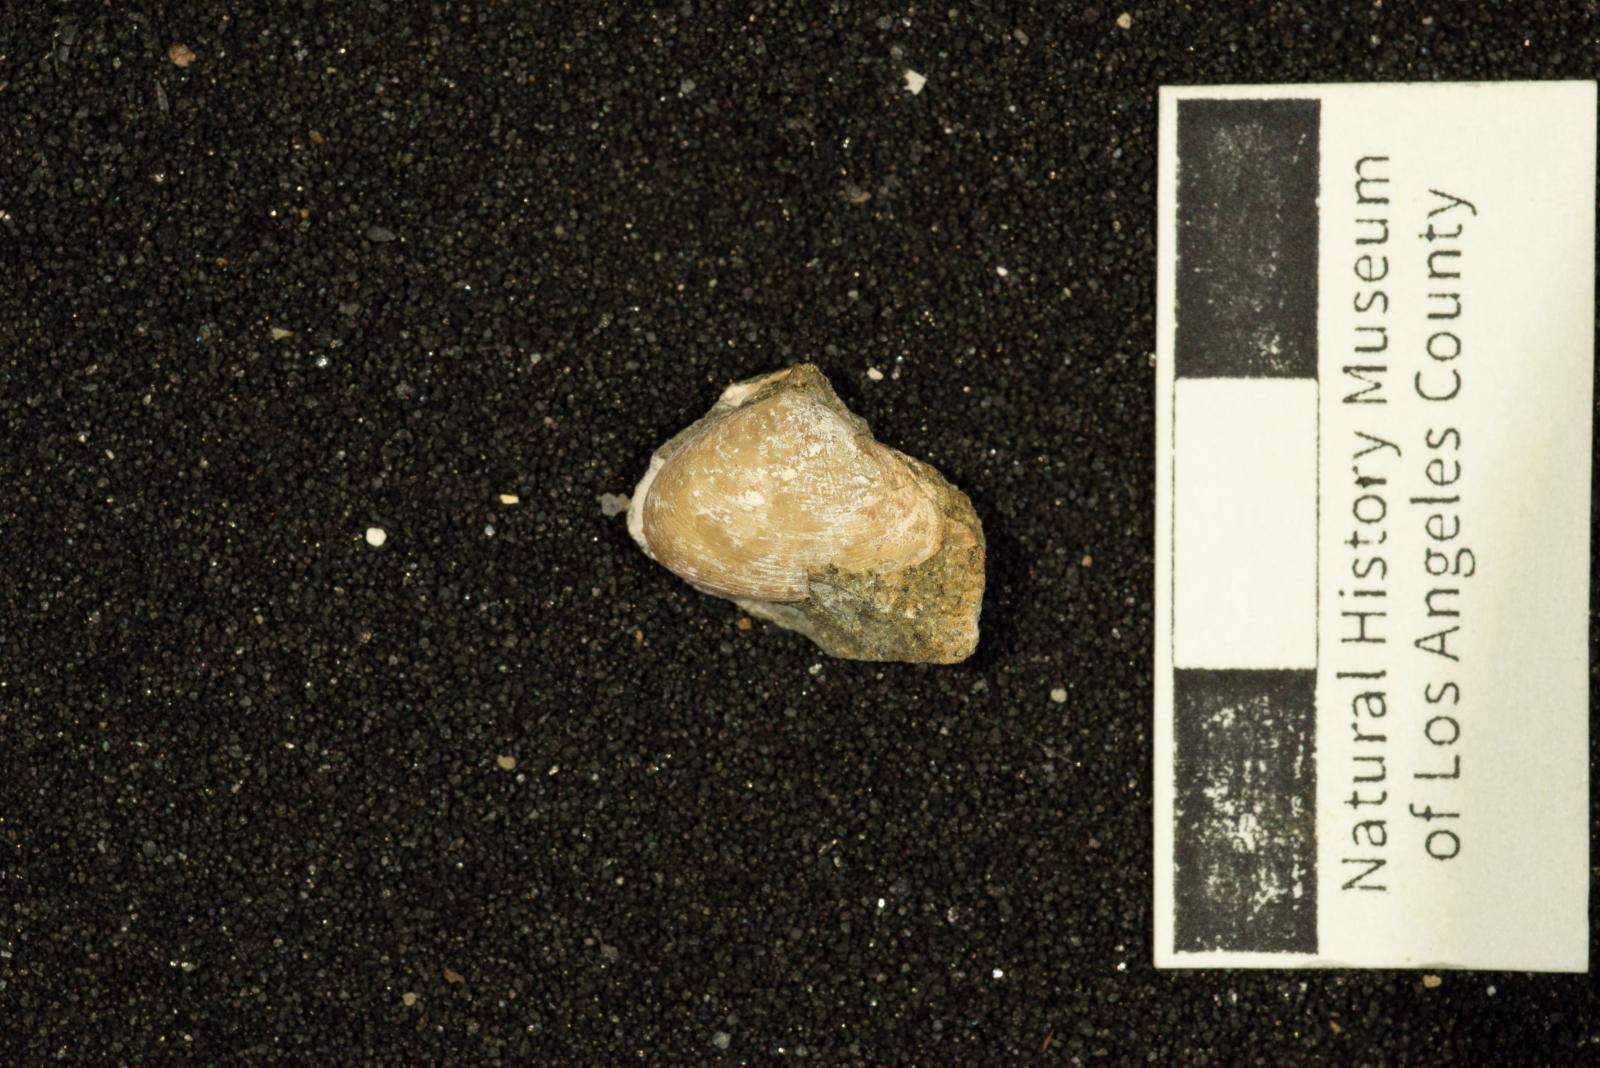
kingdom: Animalia
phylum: Mollusca
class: Bivalvia
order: Myida
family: Corbulidae
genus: Caryocorbula
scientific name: Caryocorbula vacca
